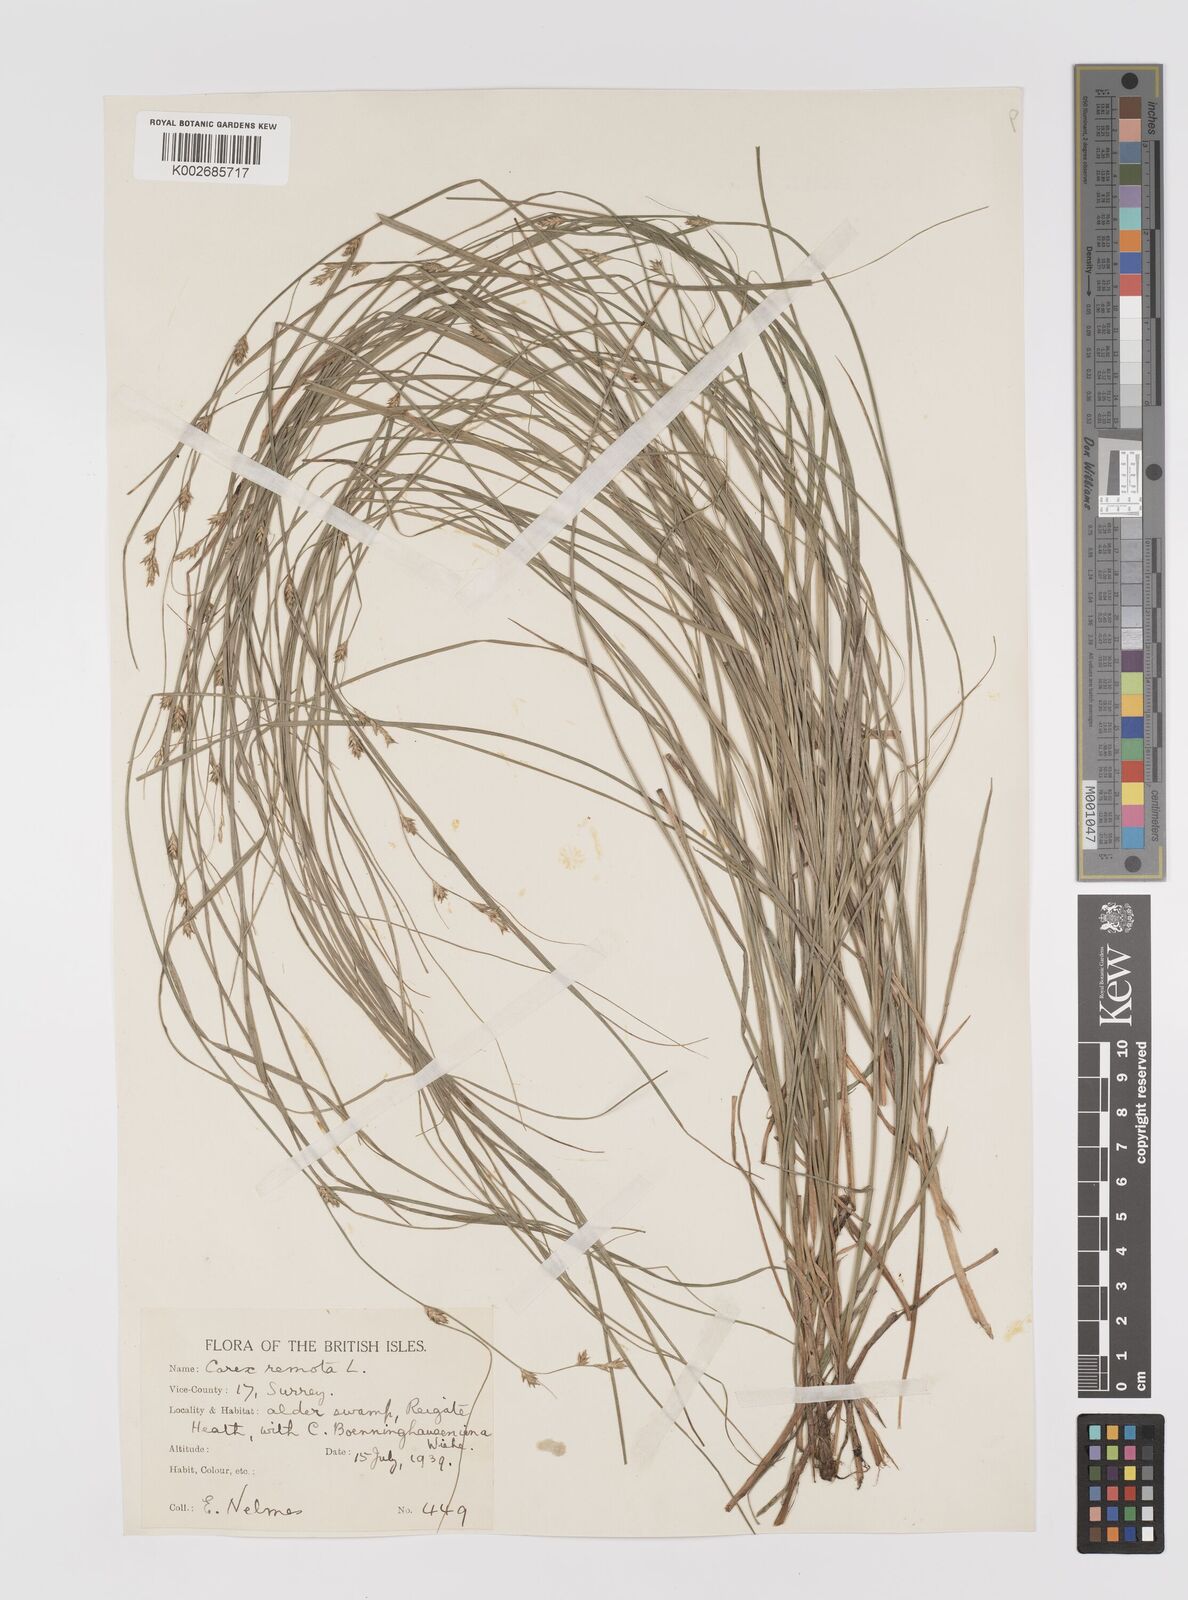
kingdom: Plantae
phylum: Tracheophyta
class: Liliopsida
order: Poales
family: Cyperaceae
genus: Carex
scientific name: Carex remota
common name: Remote sedge
